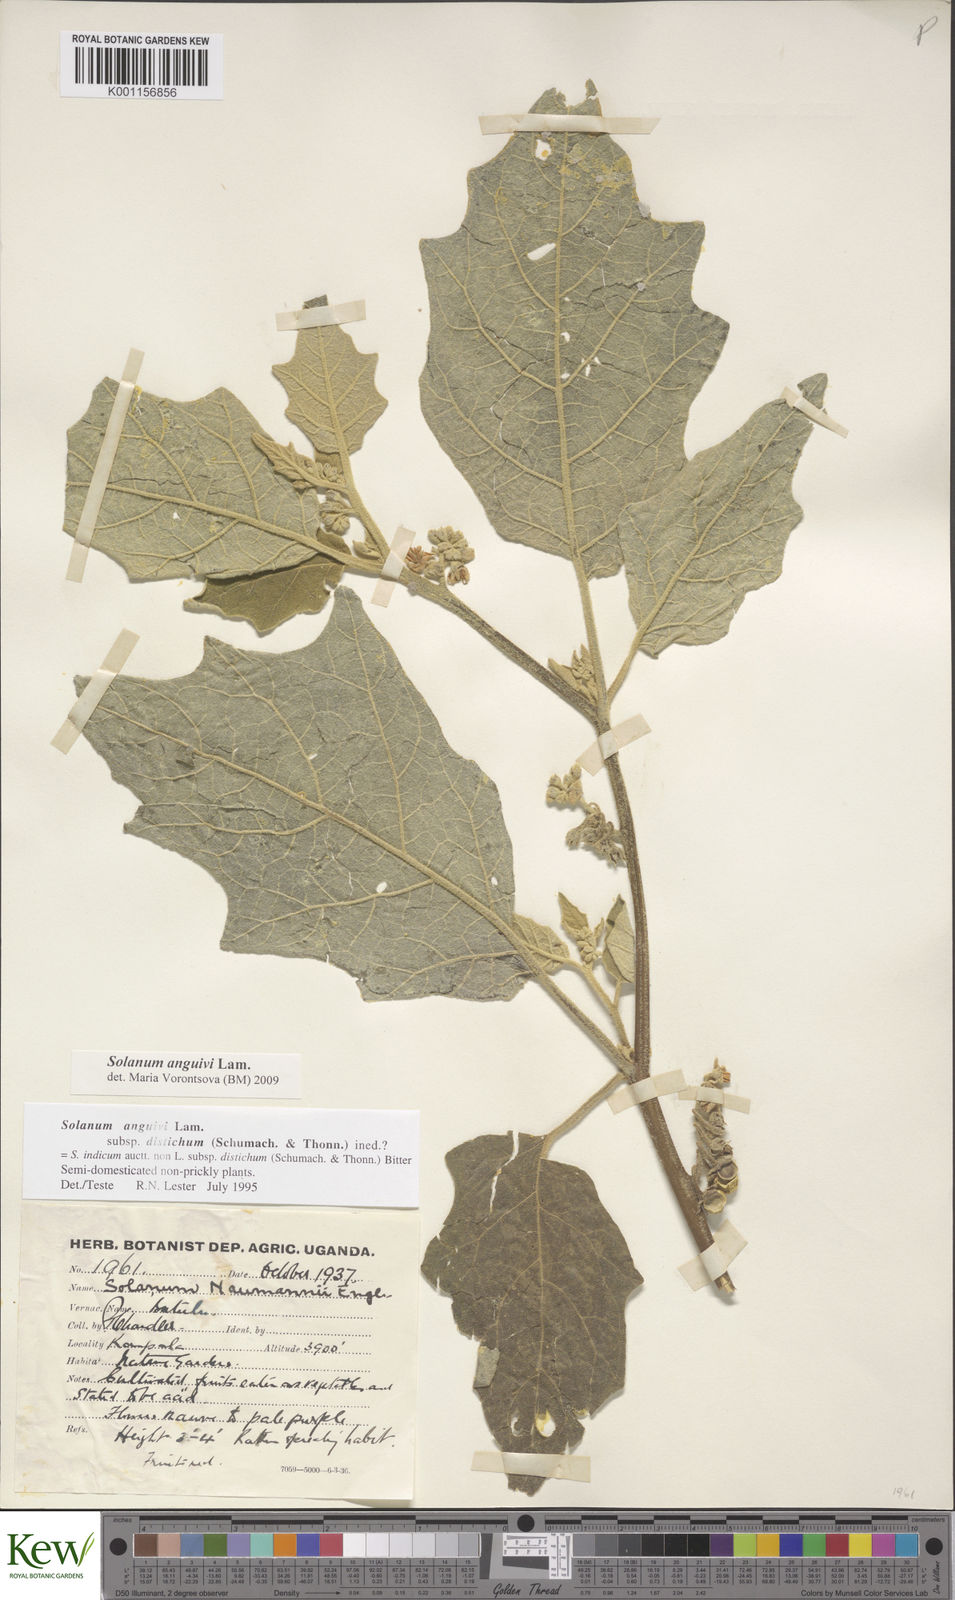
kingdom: Plantae
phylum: Tracheophyta
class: Magnoliopsida
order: Solanales
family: Solanaceae
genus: Solanum
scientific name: Solanum anguivi
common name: Forest bitterberry
